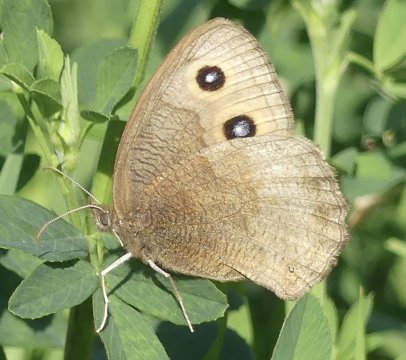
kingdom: Animalia
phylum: Arthropoda
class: Insecta
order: Lepidoptera
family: Nymphalidae
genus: Cercyonis
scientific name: Cercyonis pegala
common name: Common Wood-Nymph
